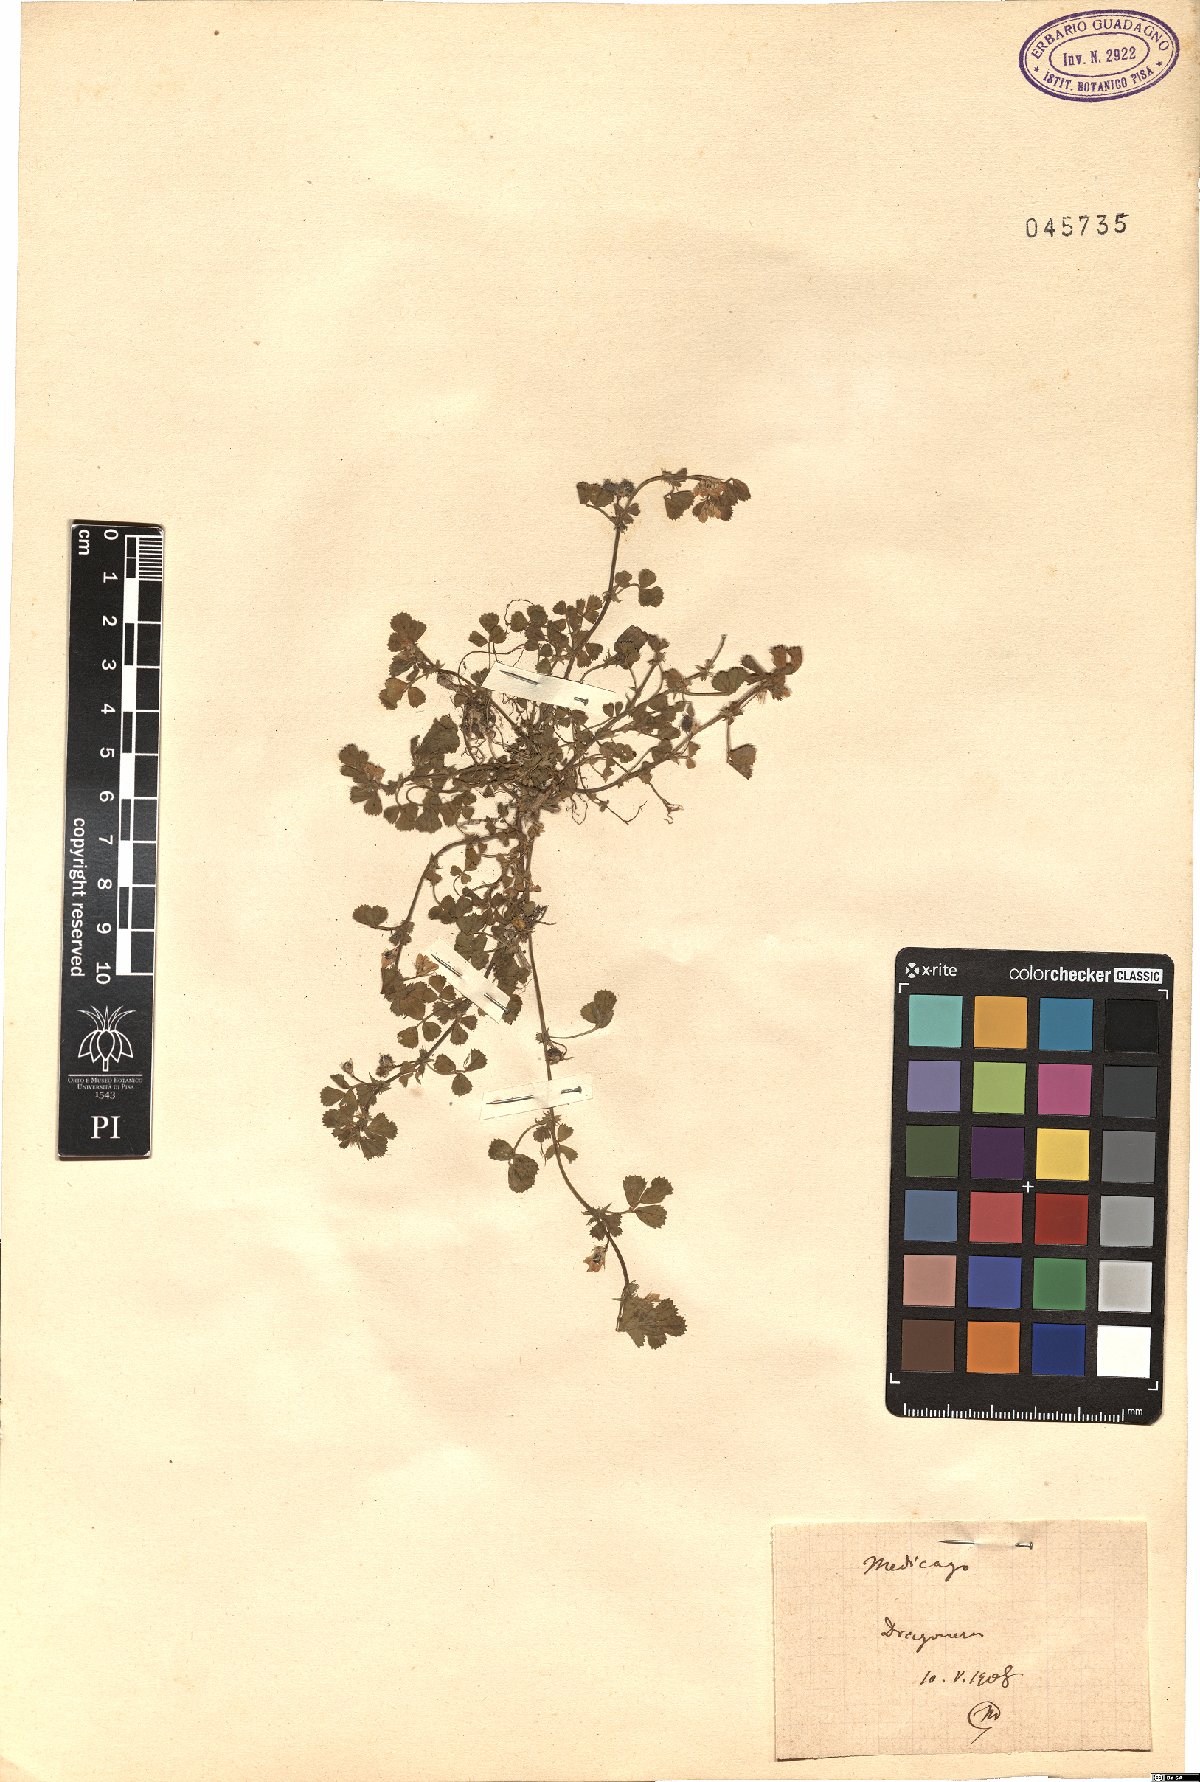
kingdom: Plantae
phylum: Tracheophyta
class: Magnoliopsida
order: Fabales
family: Fabaceae
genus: Medicago
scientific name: Medicago
